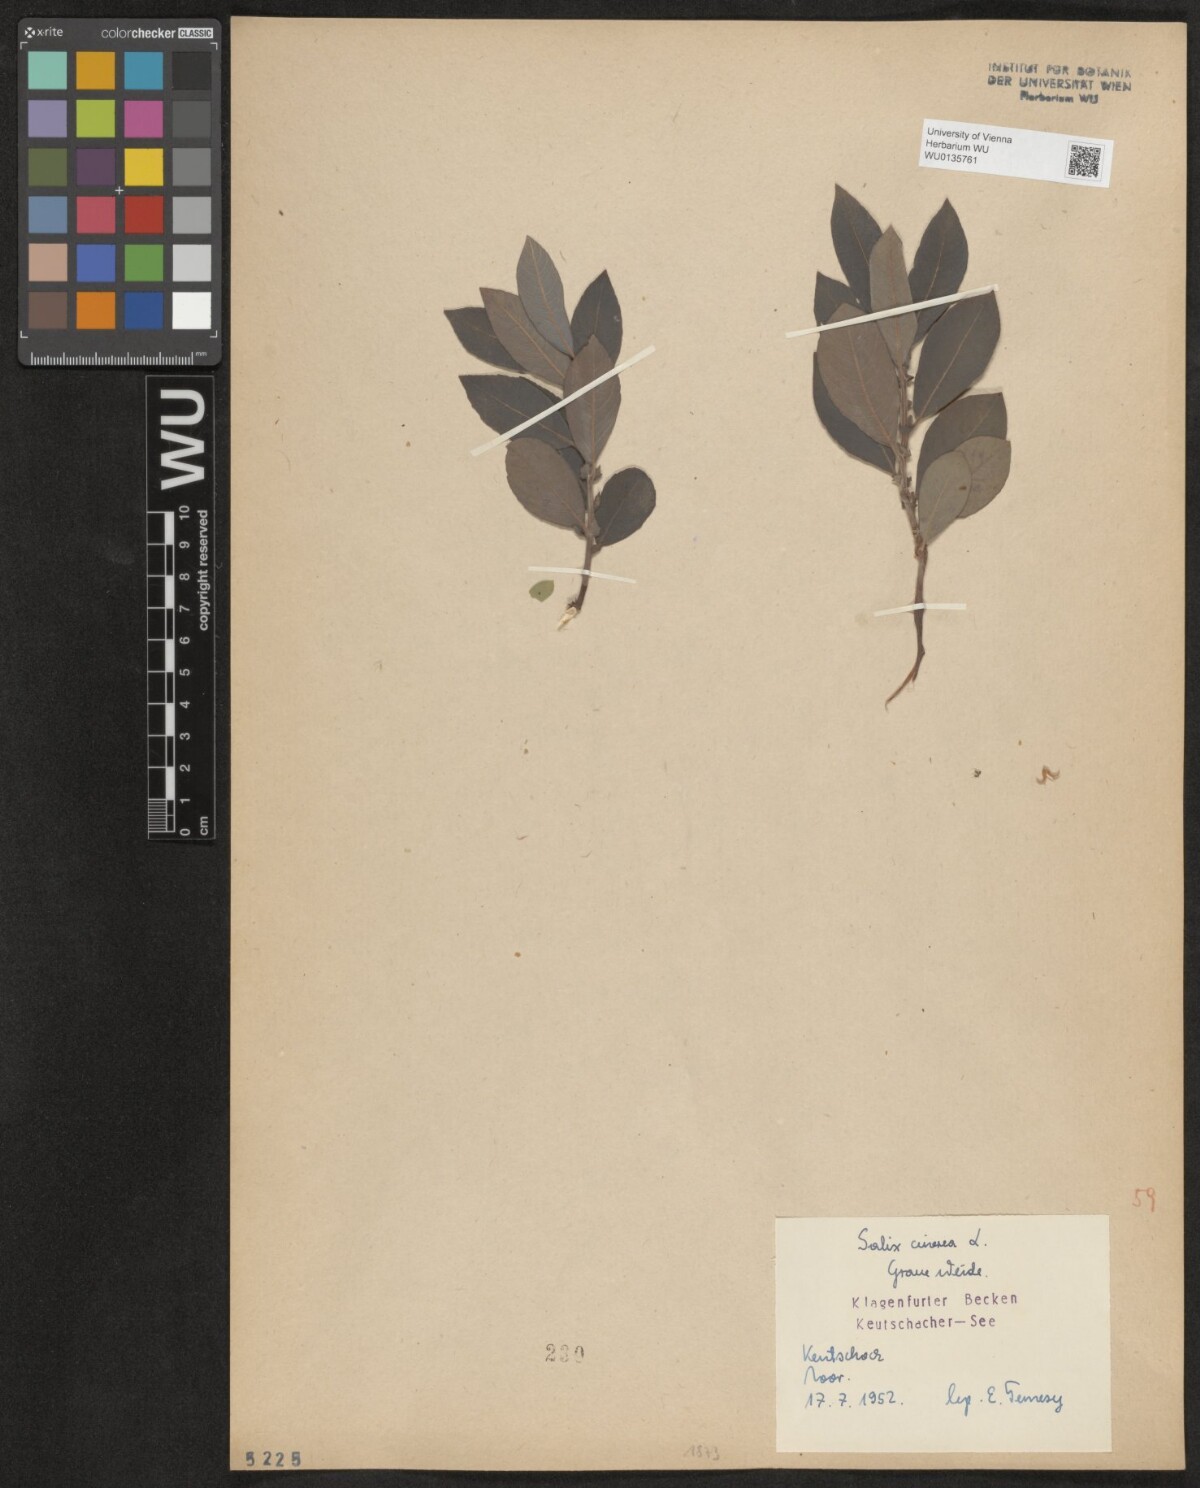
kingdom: Plantae
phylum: Tracheophyta
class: Magnoliopsida
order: Malpighiales
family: Salicaceae
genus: Salix
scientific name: Salix cinerea
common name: Common sallow
